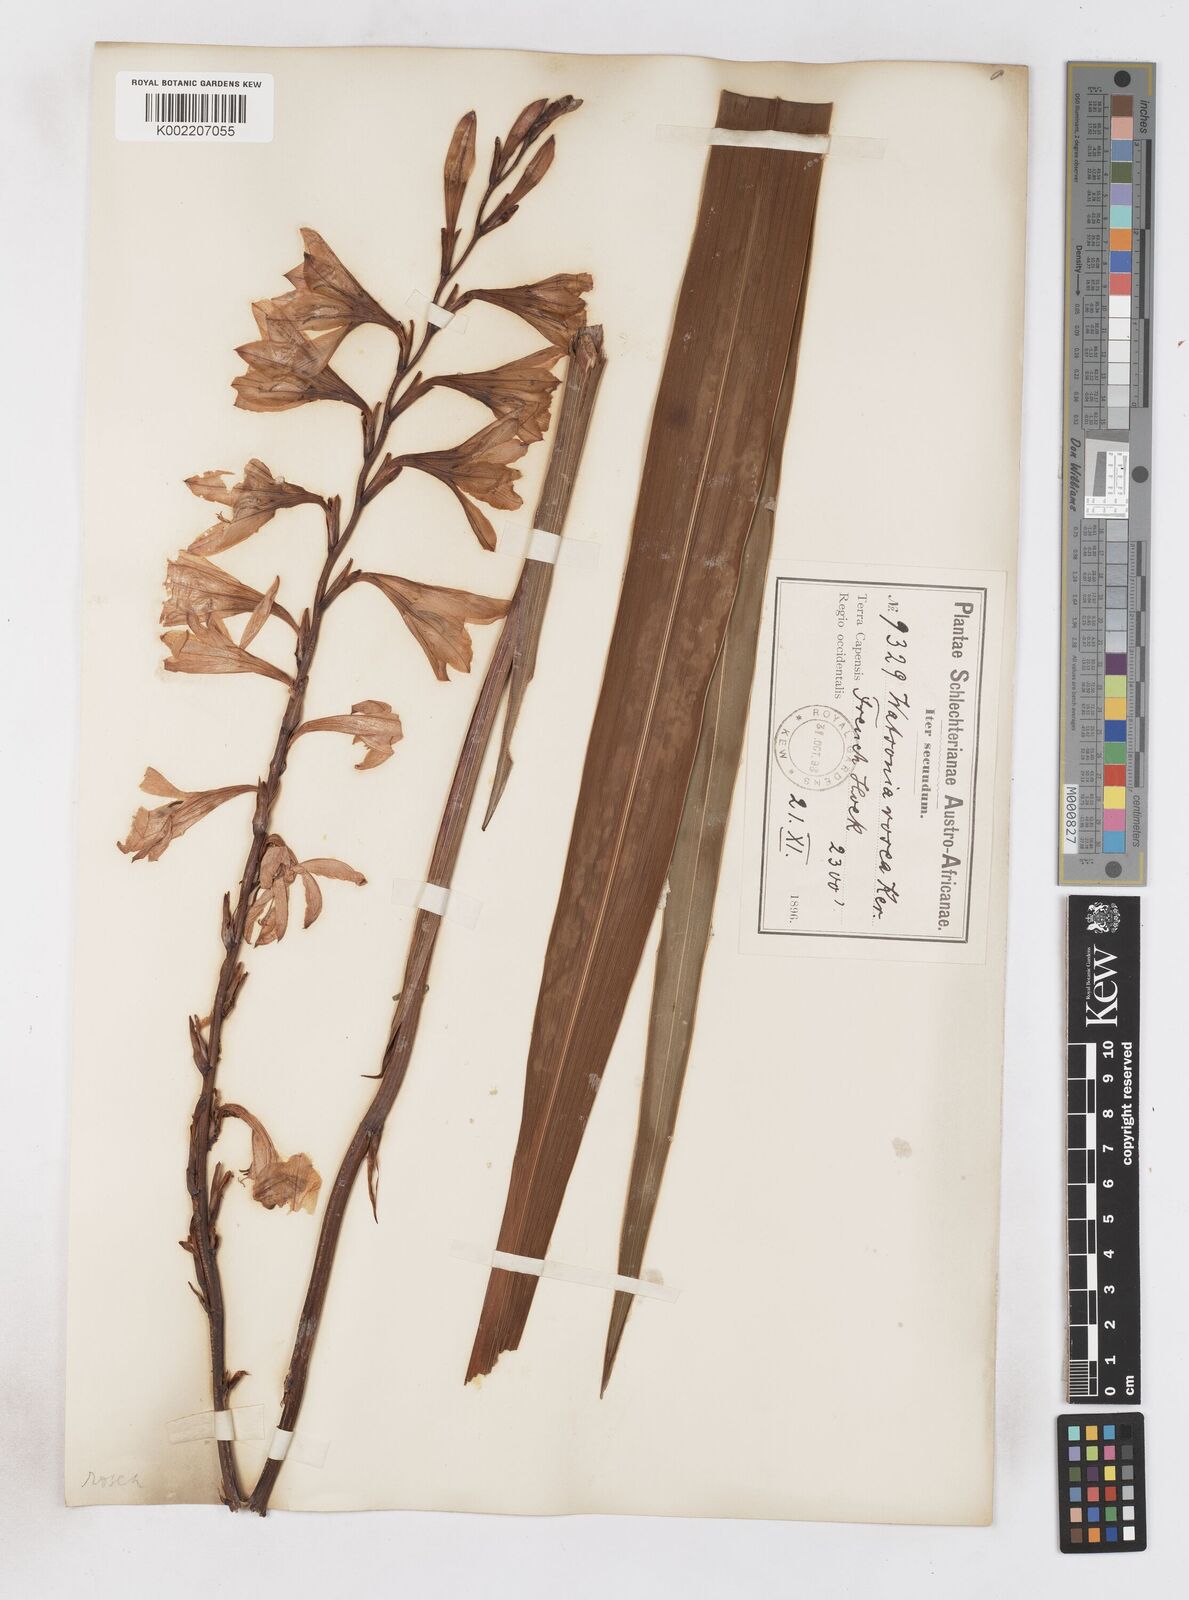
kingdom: Plantae
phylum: Tracheophyta
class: Liliopsida
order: Asparagales
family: Iridaceae
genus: Watsonia
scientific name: Watsonia borbonica
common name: Bugle-lily
